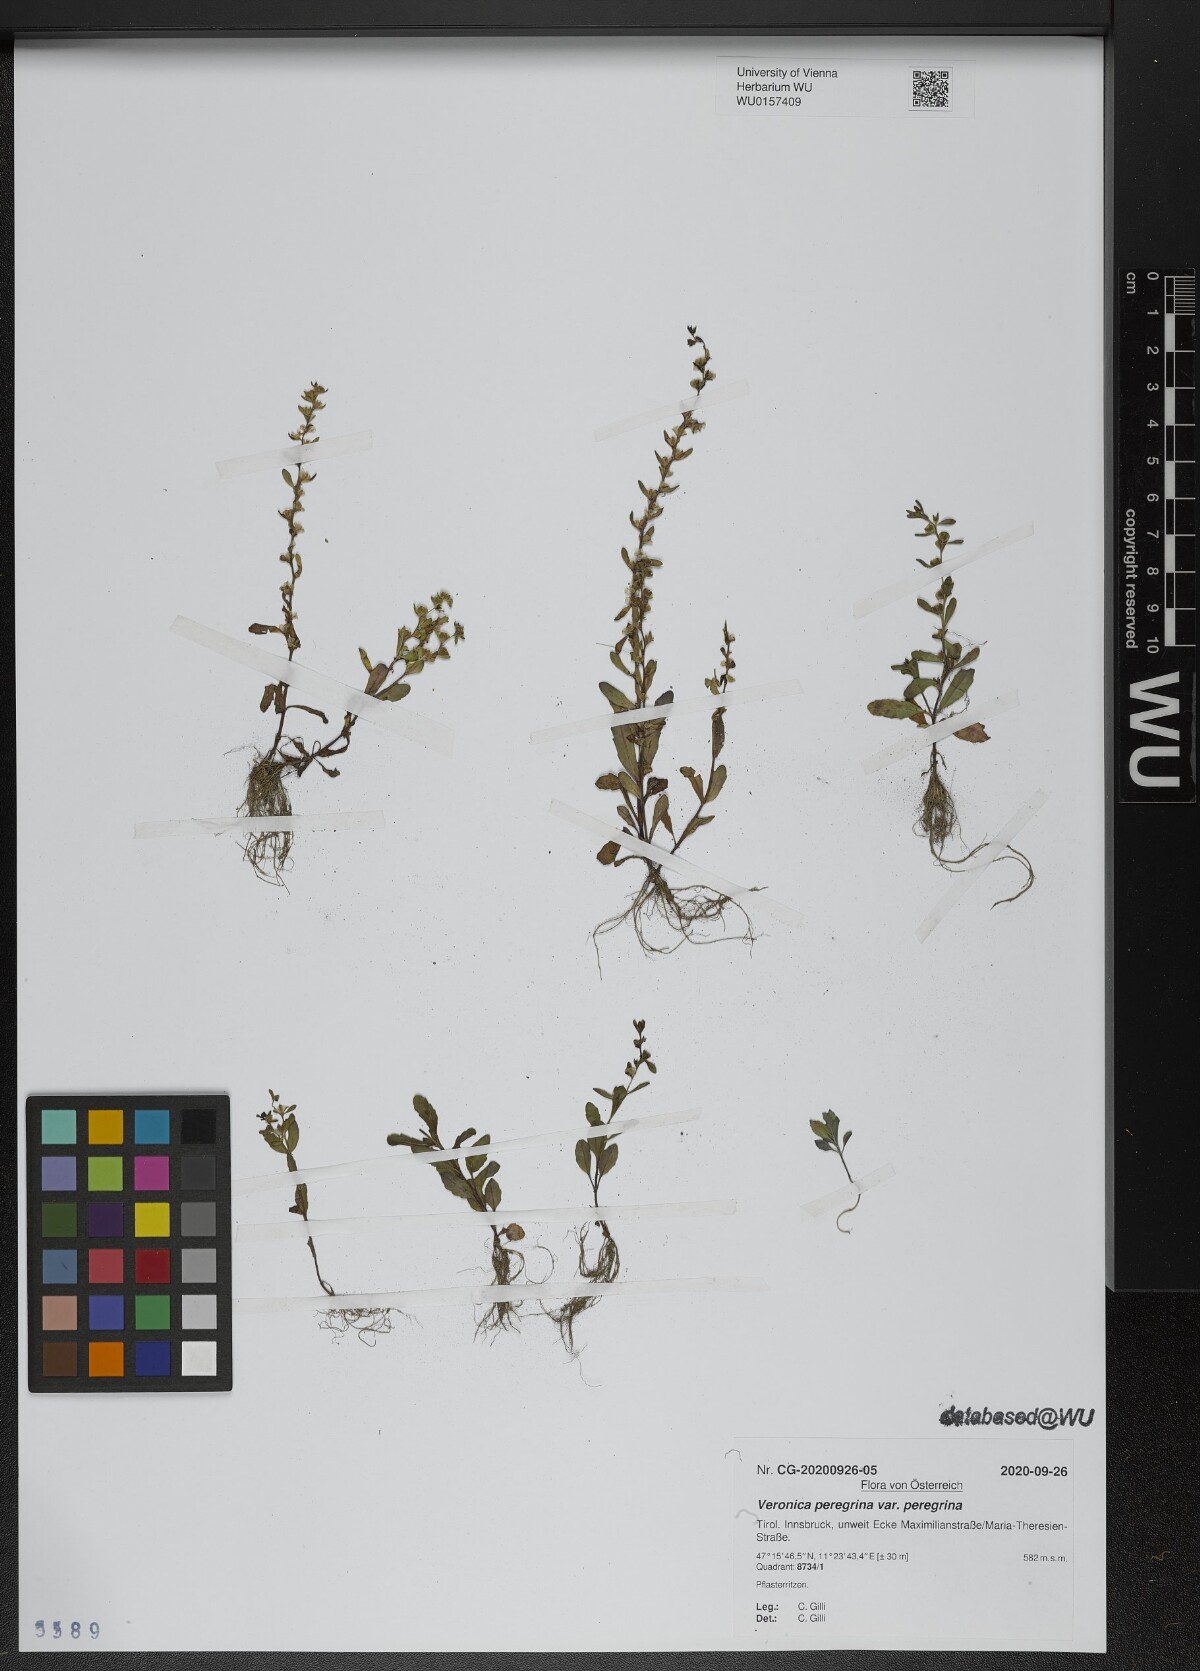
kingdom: Plantae
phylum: Tracheophyta
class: Magnoliopsida
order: Lamiales
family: Plantaginaceae
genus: Veronica
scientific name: Veronica peregrina
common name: Neckweed
